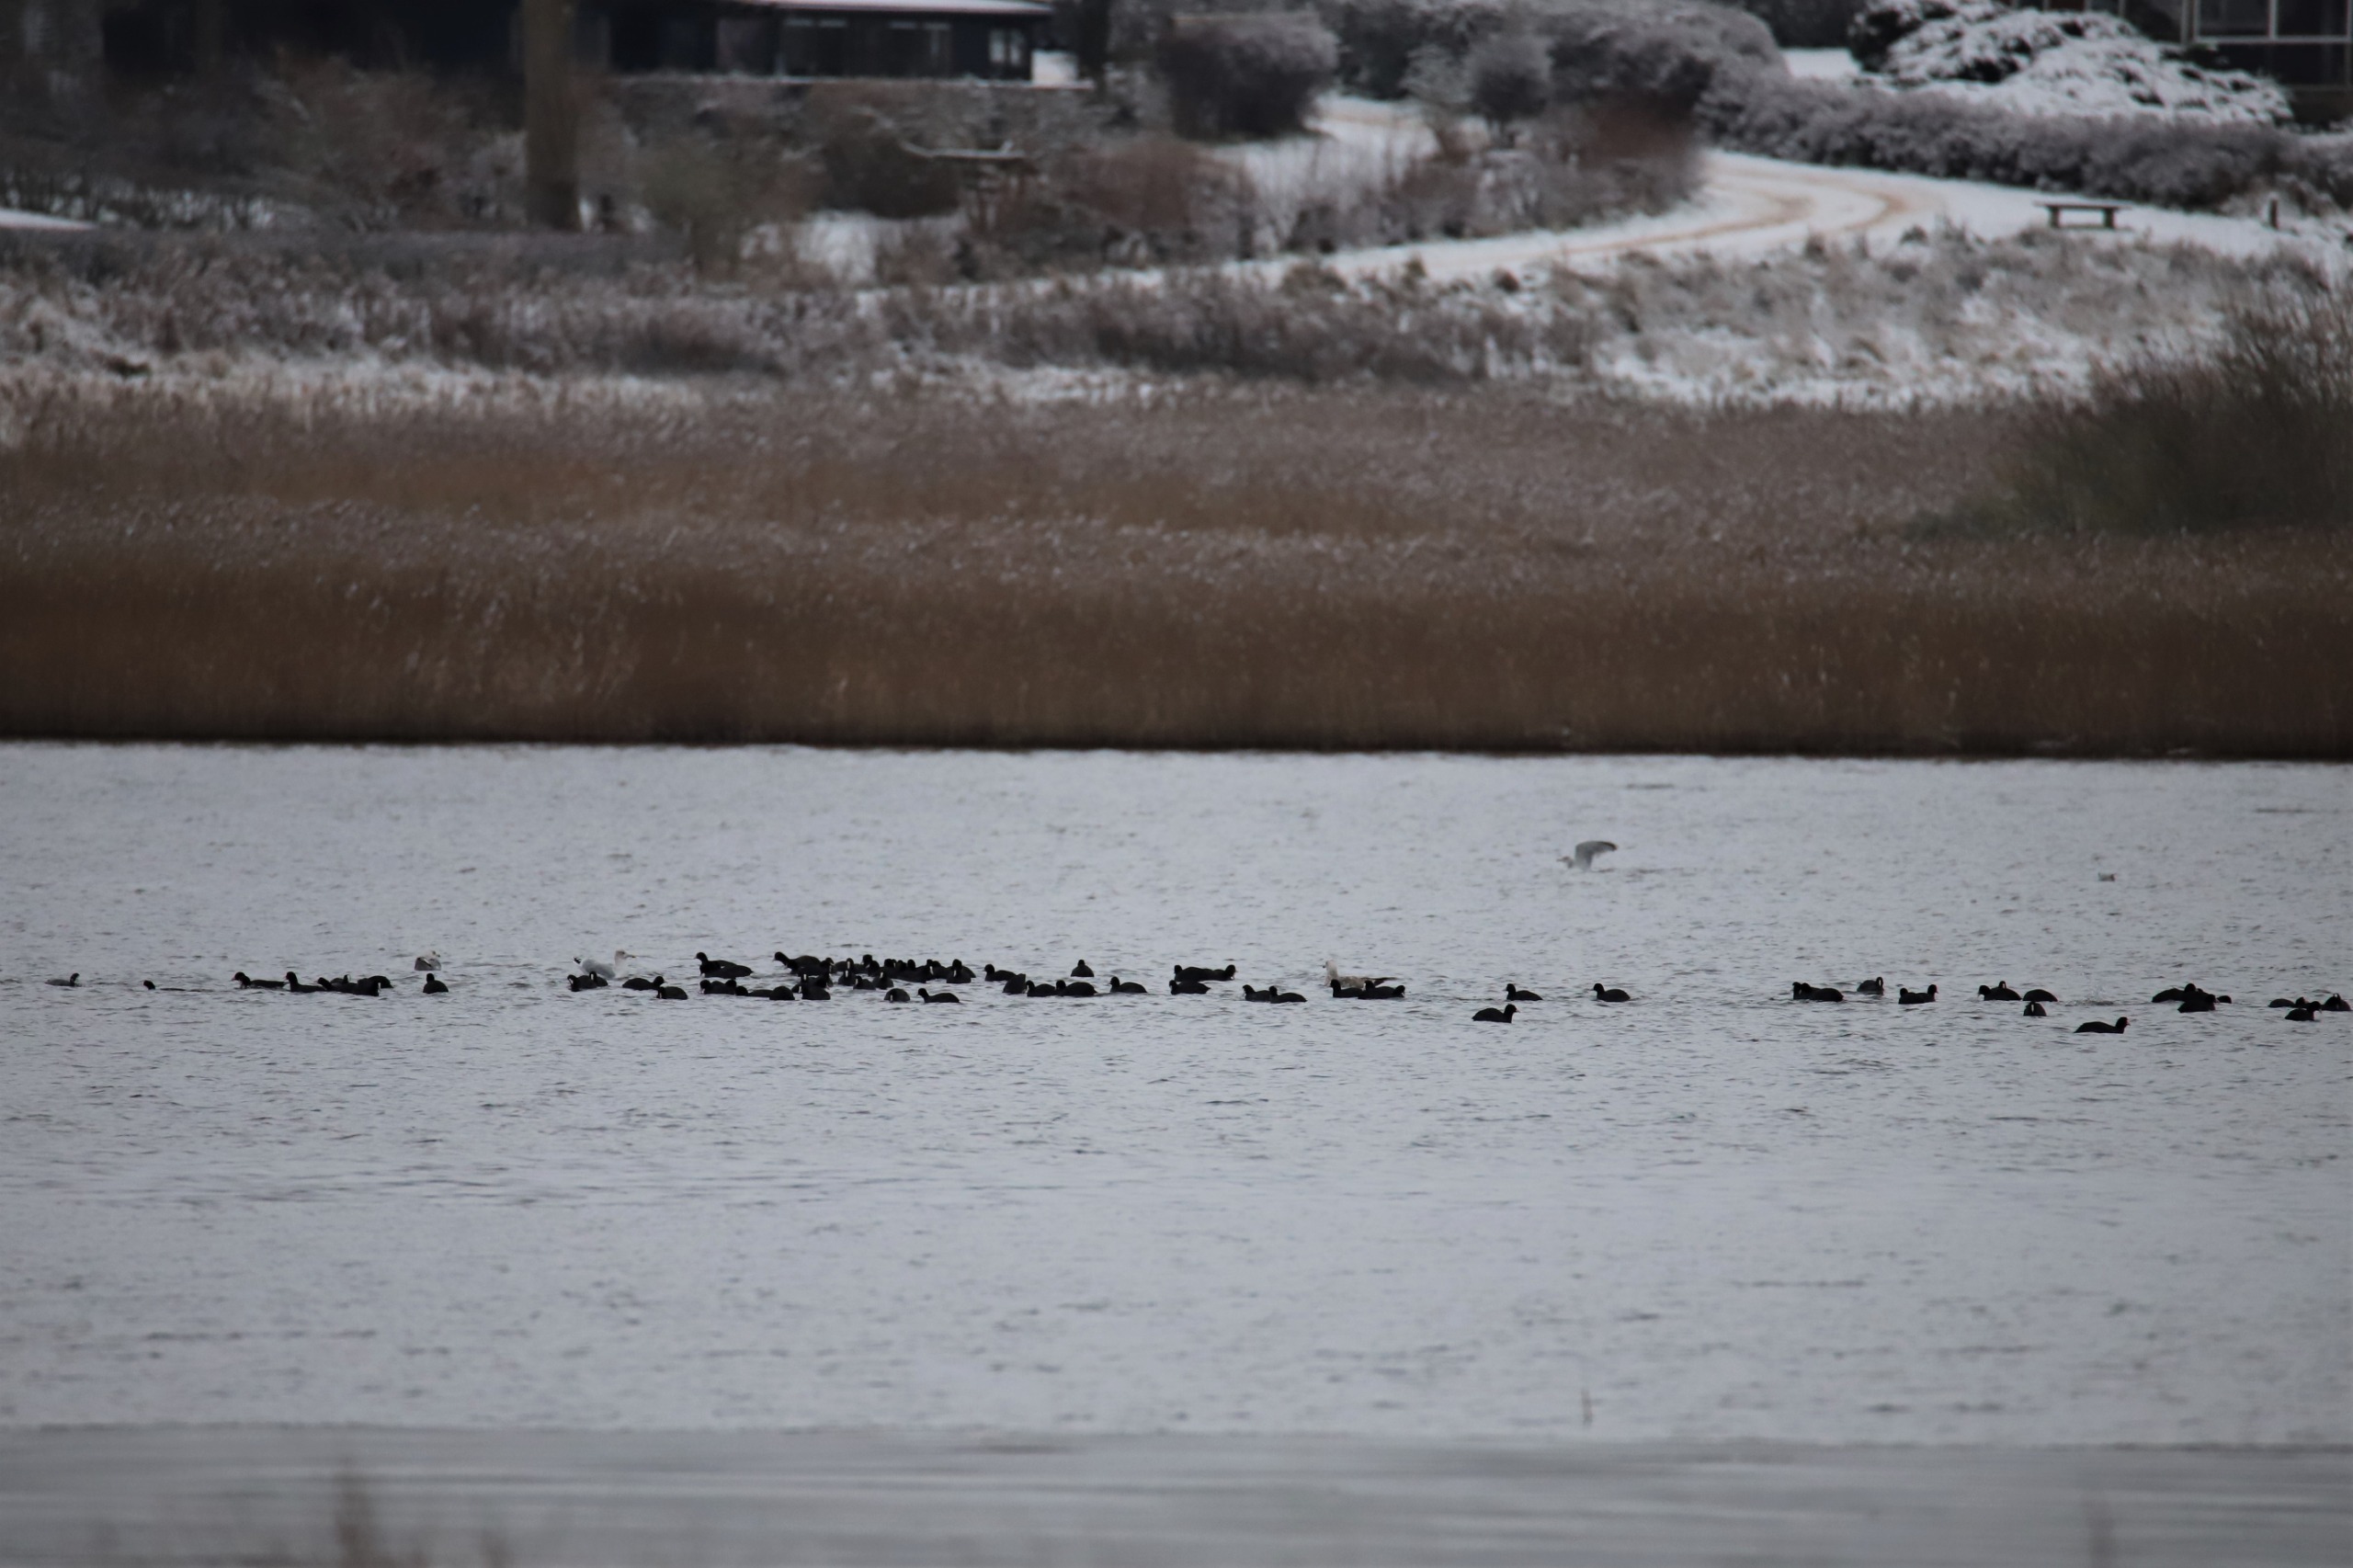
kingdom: Animalia
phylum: Chordata
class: Aves
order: Gruiformes
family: Rallidae
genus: Fulica
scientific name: Fulica atra
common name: Blishøne
